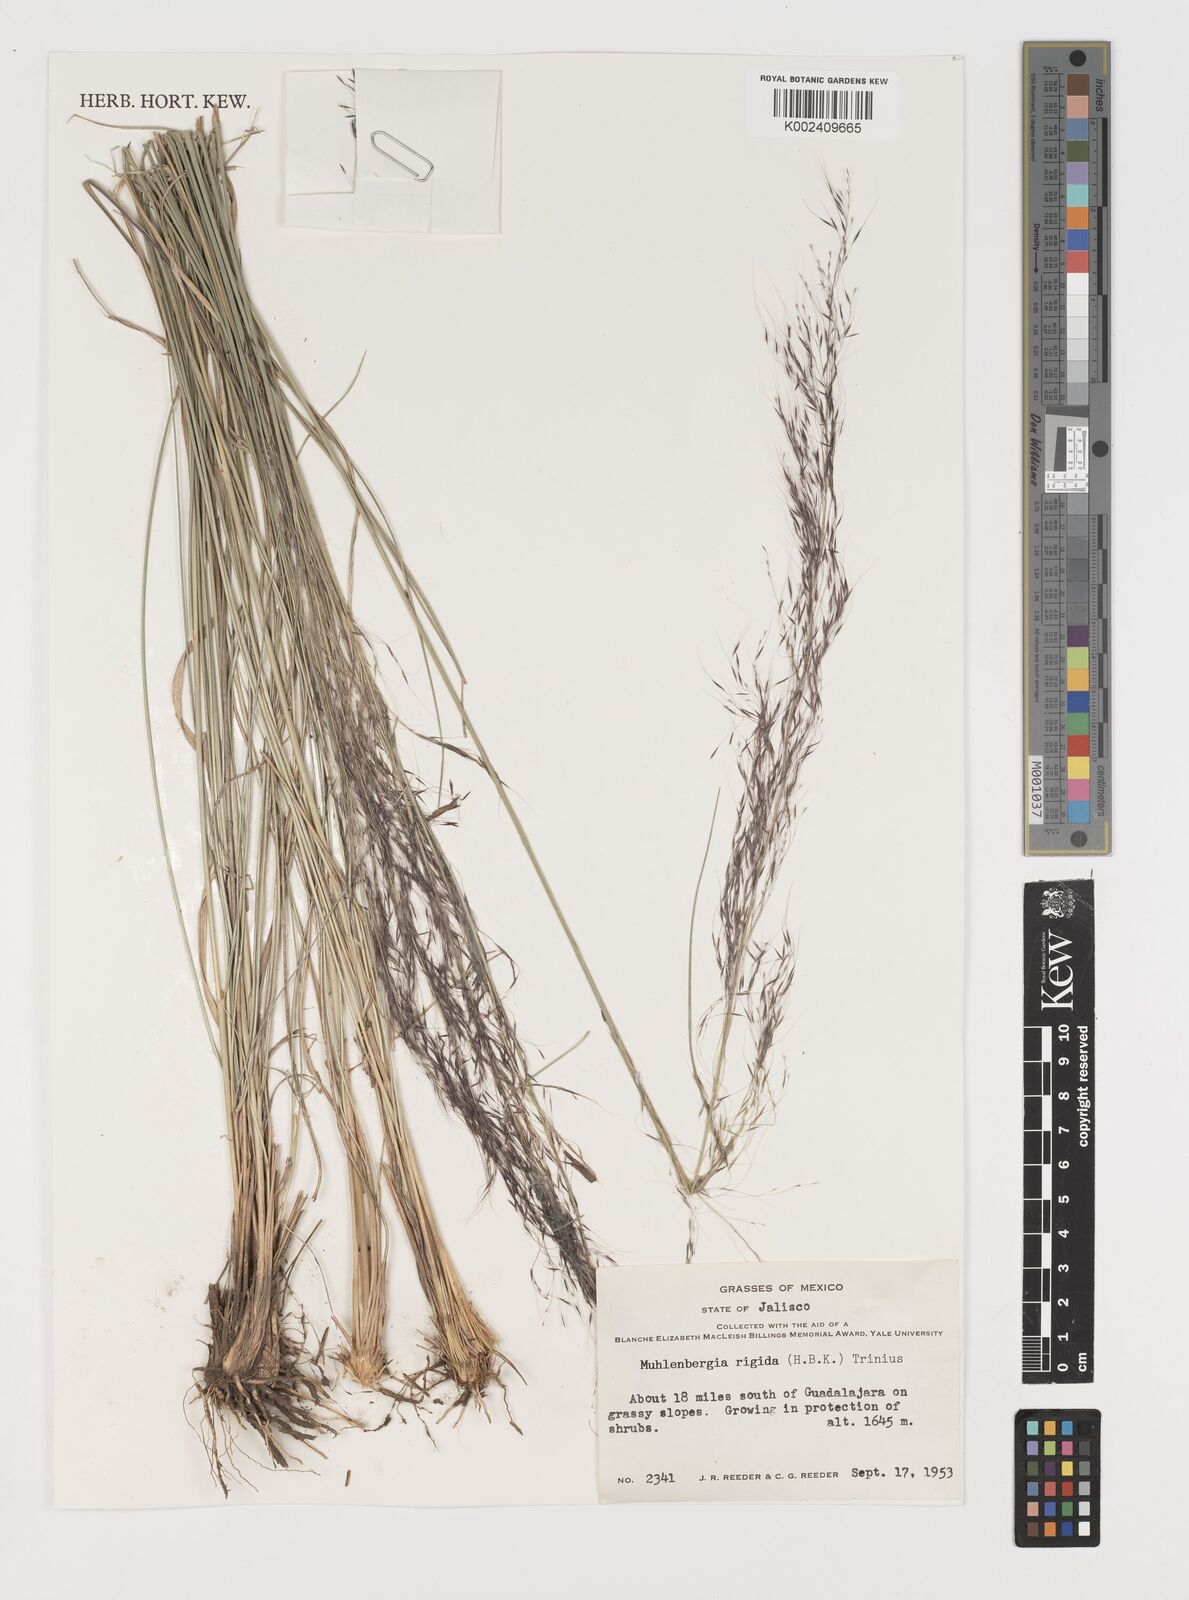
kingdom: Plantae
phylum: Tracheophyta
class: Liliopsida
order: Poales
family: Poaceae
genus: Muhlenbergia
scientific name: Muhlenbergia rigida
